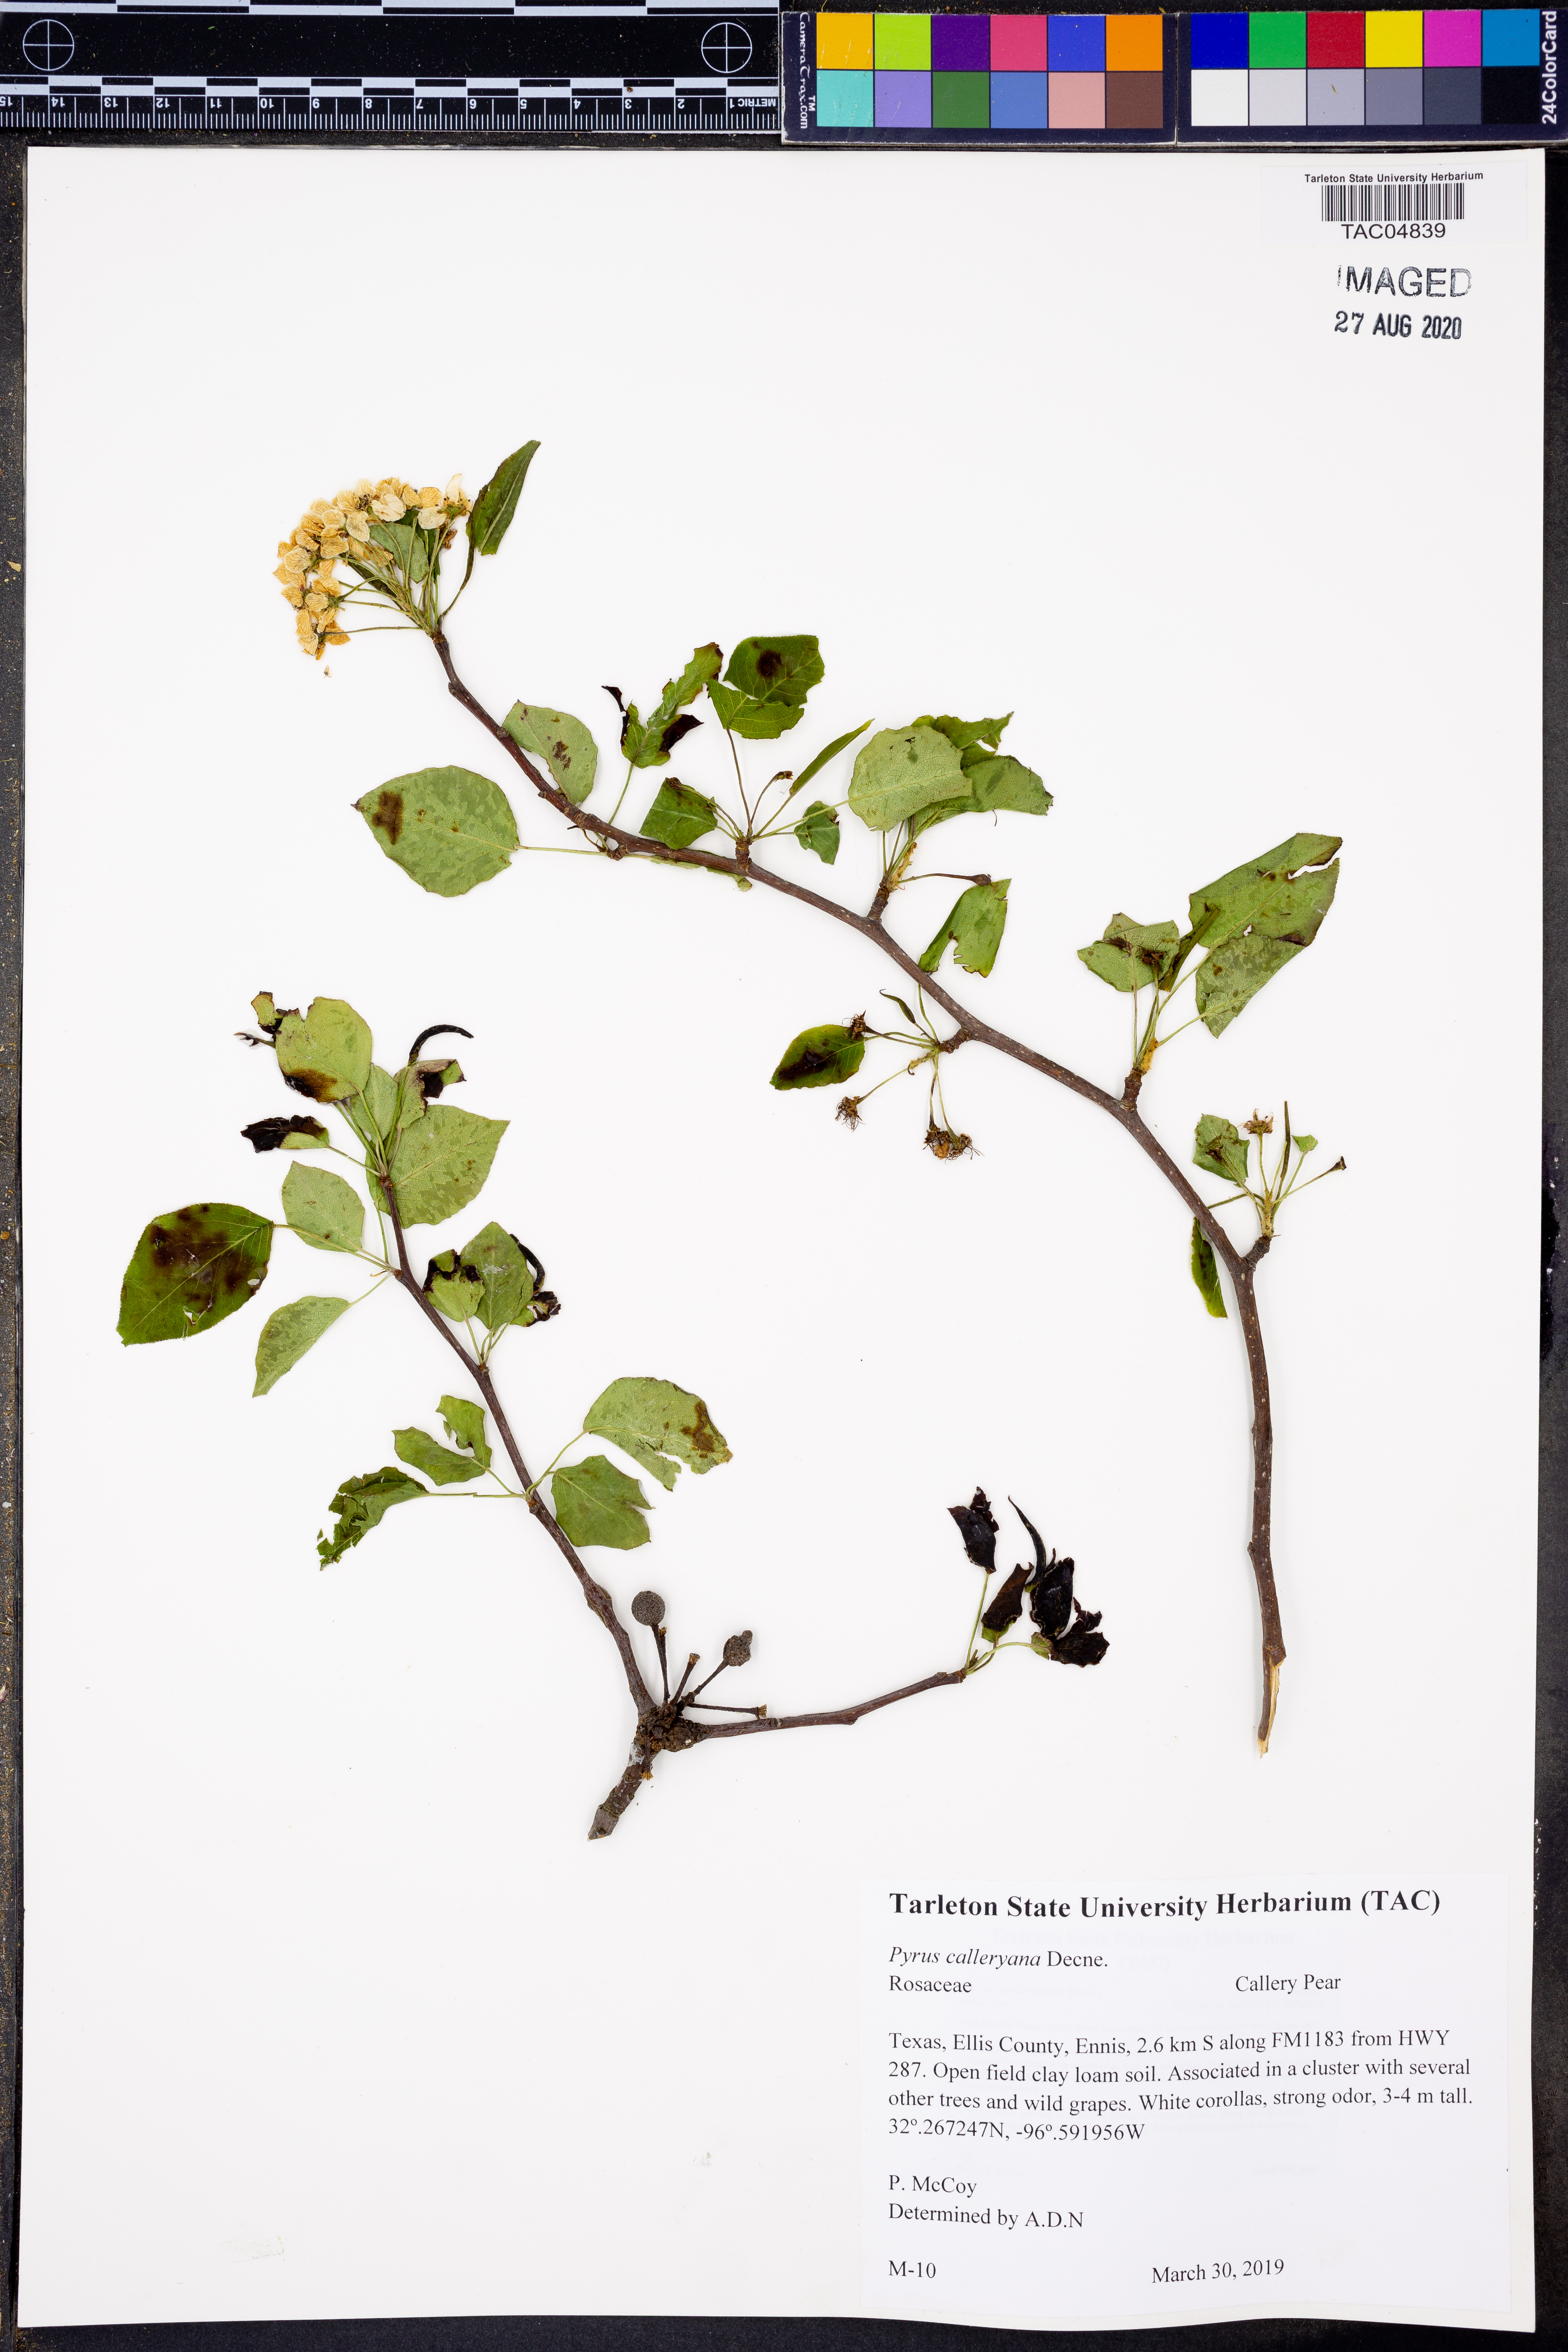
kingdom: Plantae
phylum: Tracheophyta
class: Magnoliopsida
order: Rosales
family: Rosaceae
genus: Pyrus
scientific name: Pyrus calleryana
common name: Callery pear
